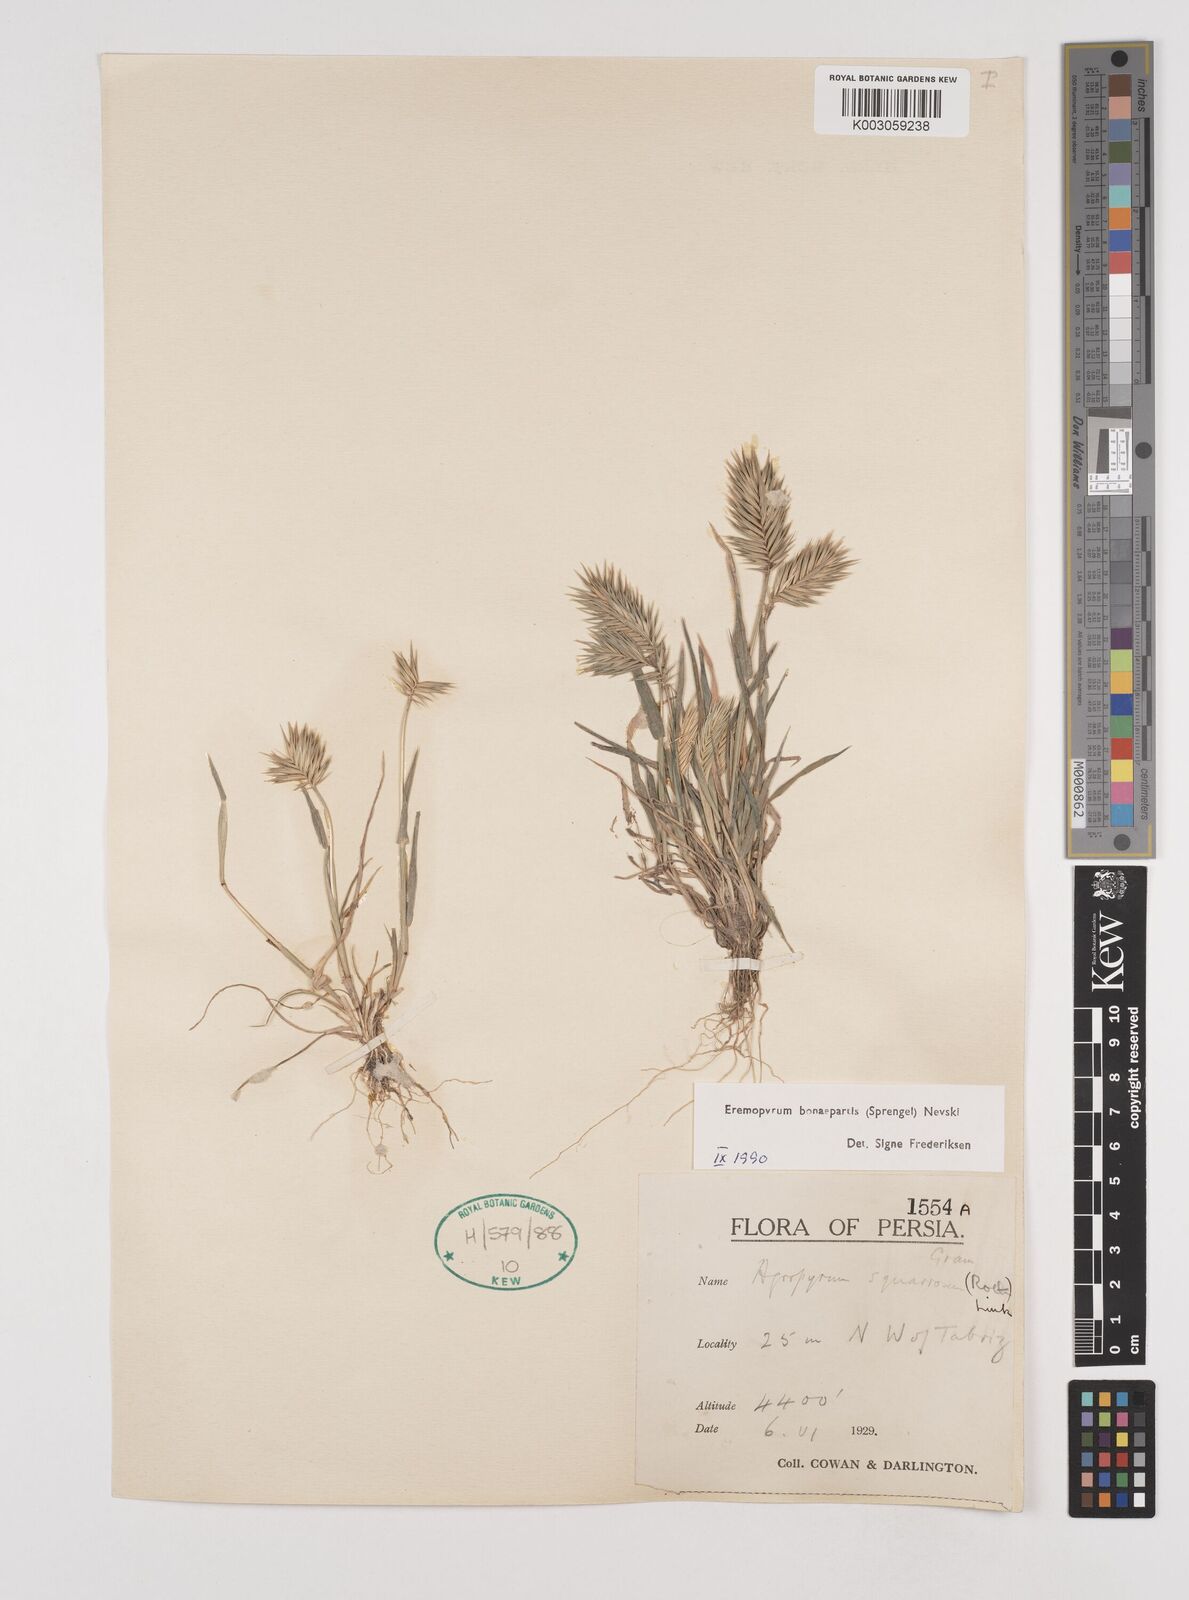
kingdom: Plantae
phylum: Tracheophyta
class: Liliopsida
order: Poales
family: Poaceae
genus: Eremopyrum
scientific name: Eremopyrum bonaepartis
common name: Tapertip false wheatgrass
